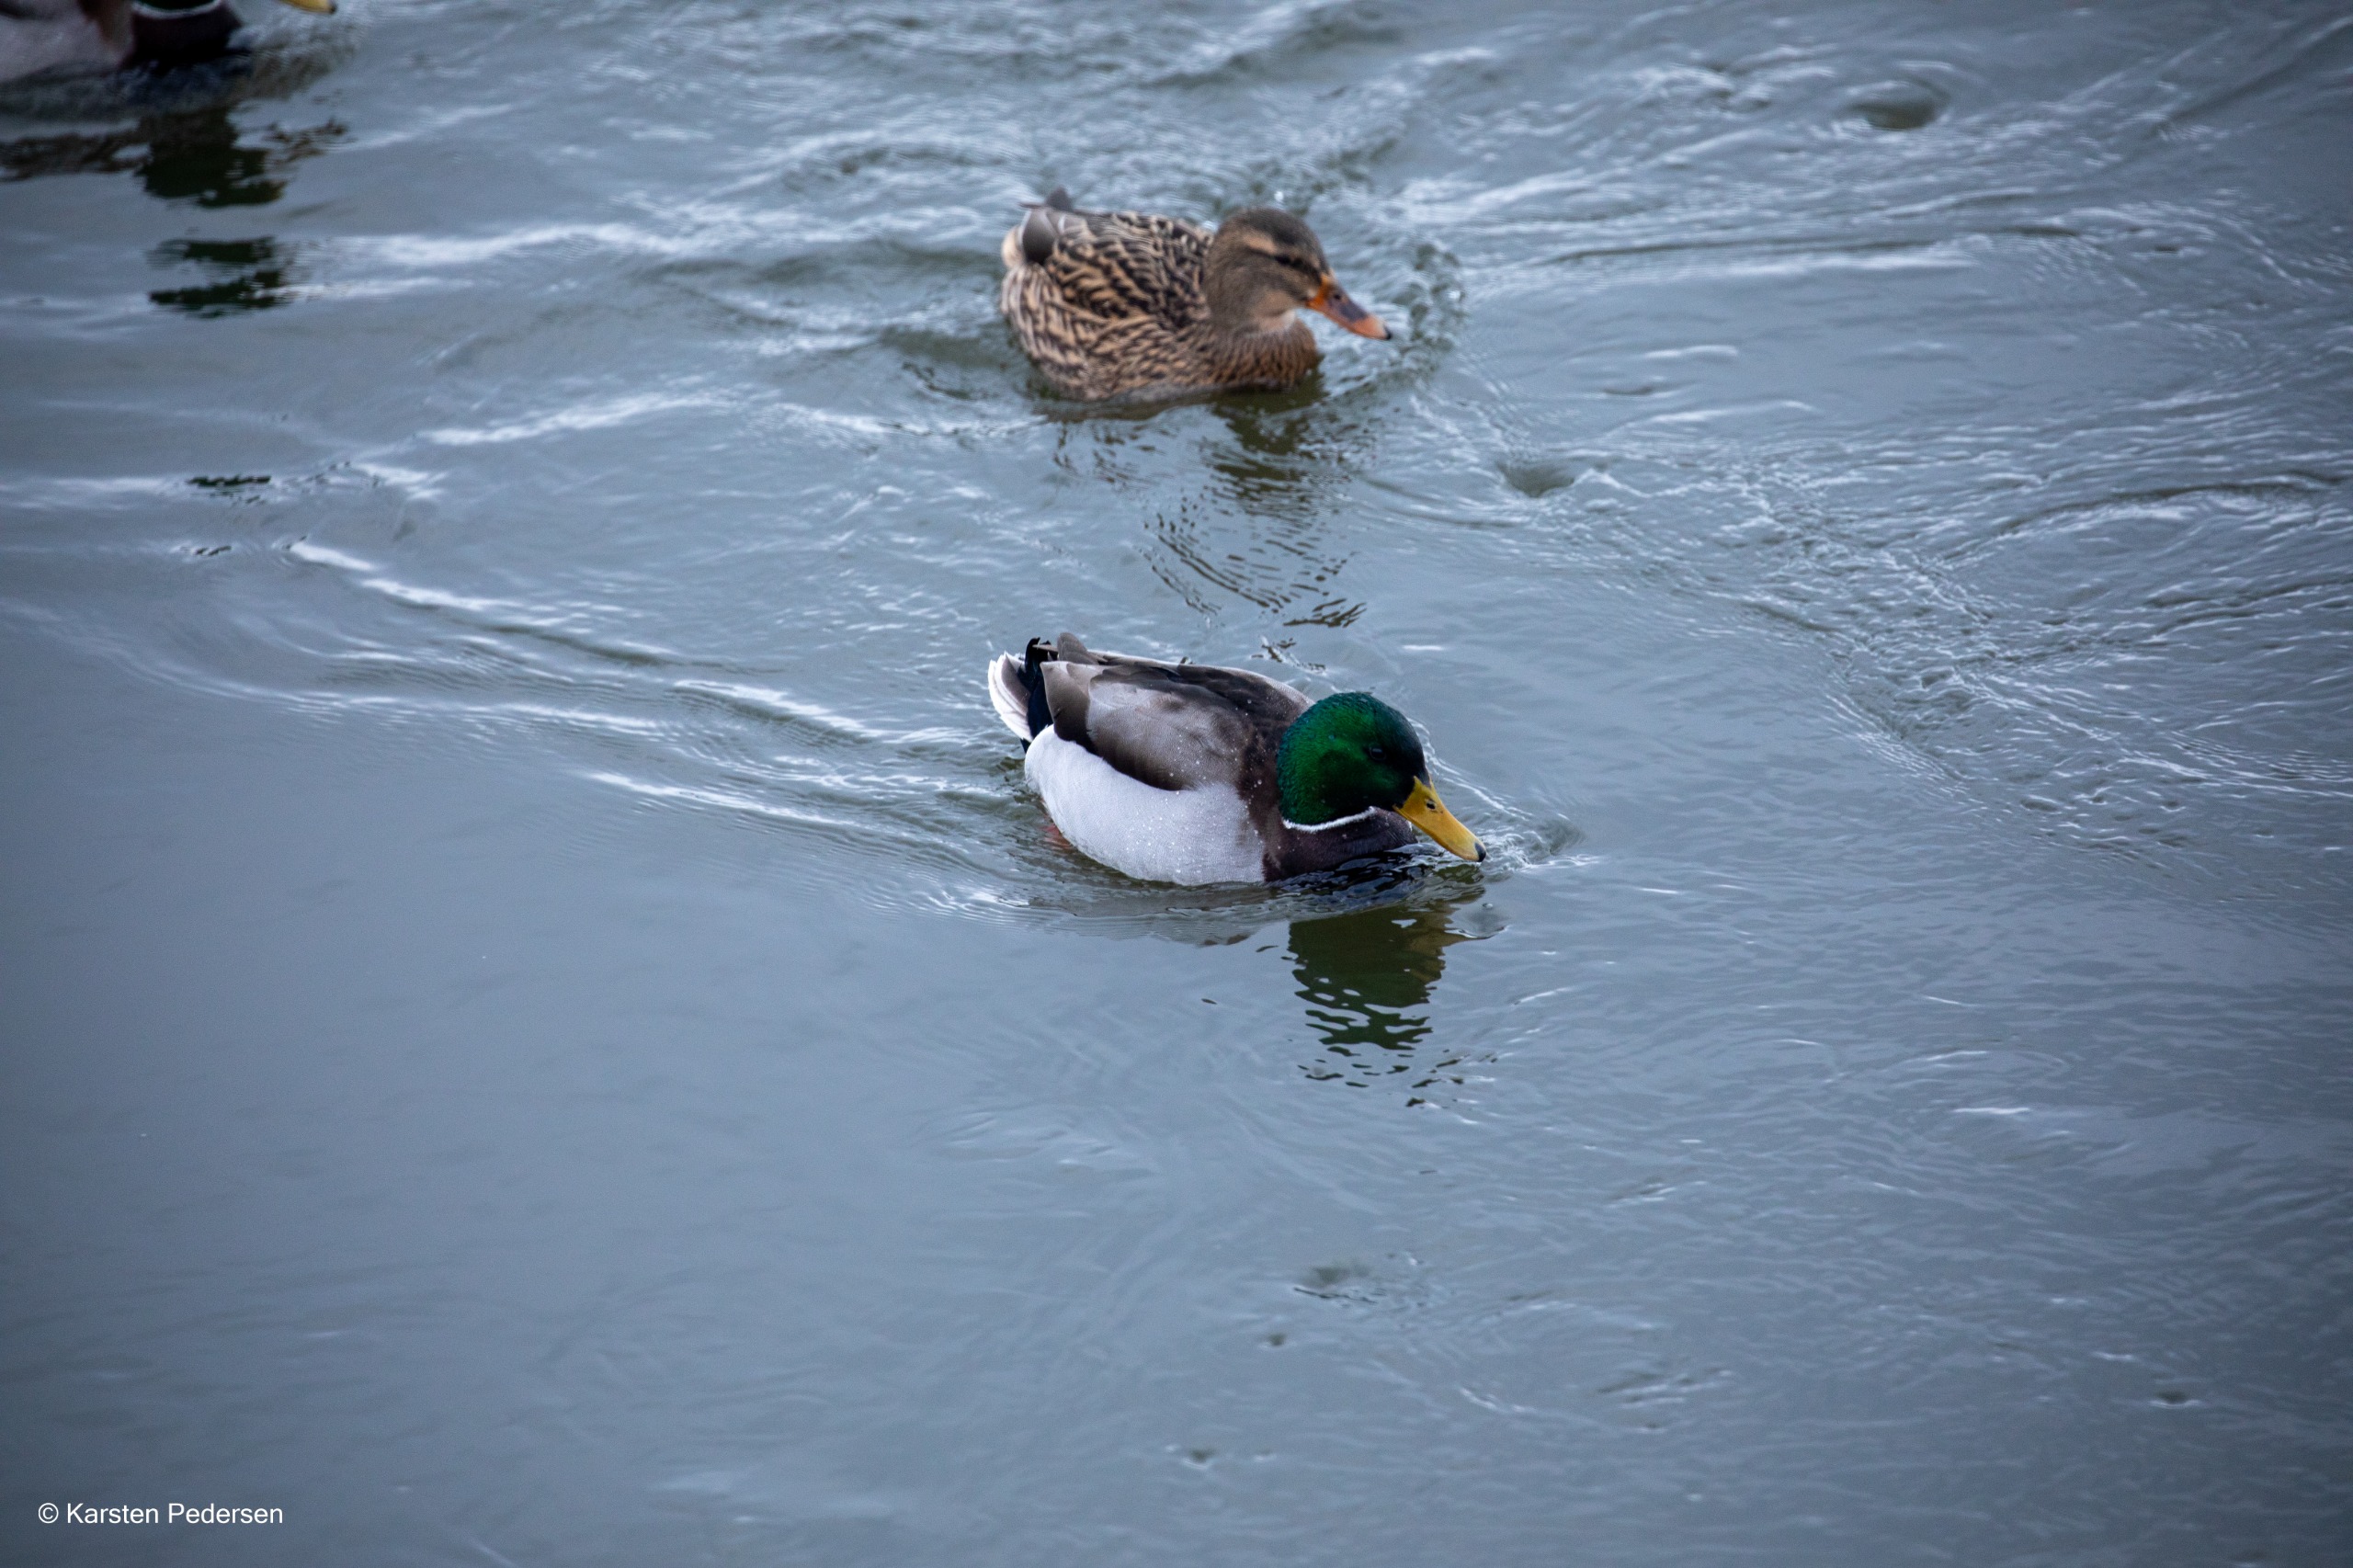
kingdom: Animalia
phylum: Chordata
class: Aves
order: Anseriformes
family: Anatidae
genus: Anas
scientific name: Anas platyrhynchos
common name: Gråand
